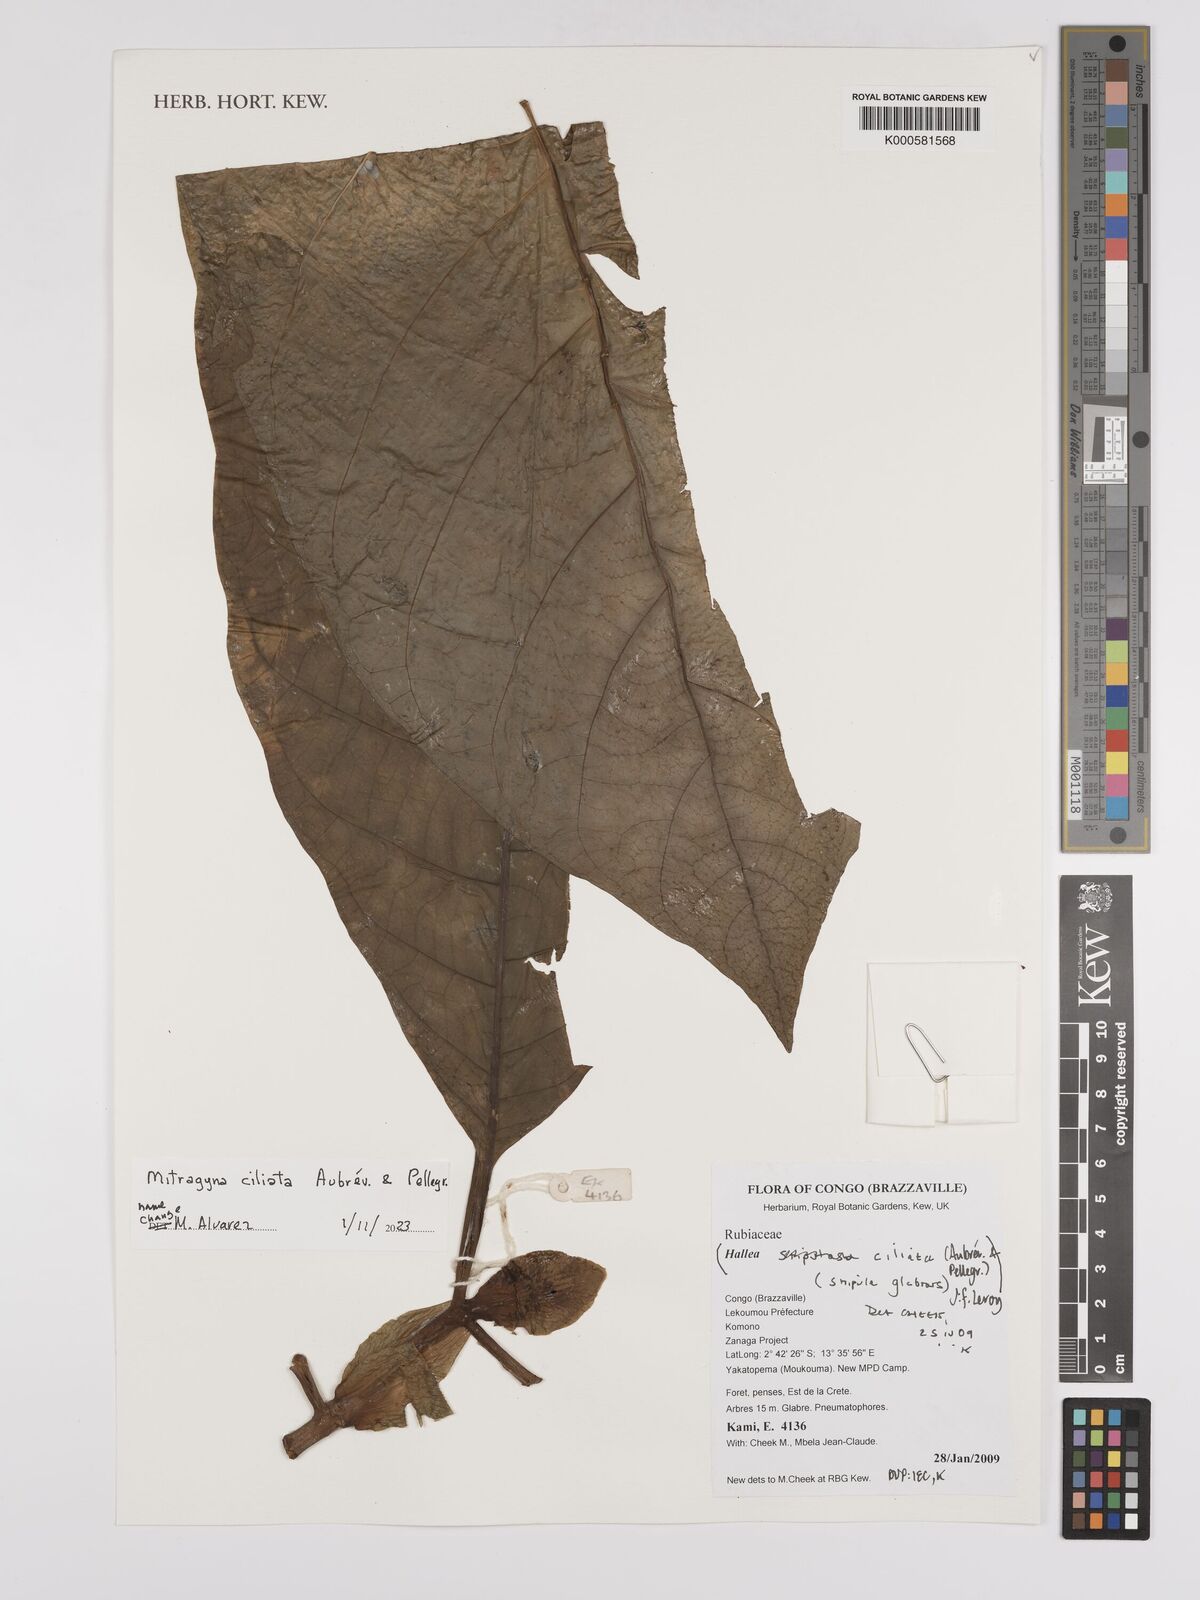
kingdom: Plantae
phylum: Tracheophyta
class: Magnoliopsida
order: Gentianales
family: Rubiaceae
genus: Mitragyna
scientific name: Mitragyna stipulosa
